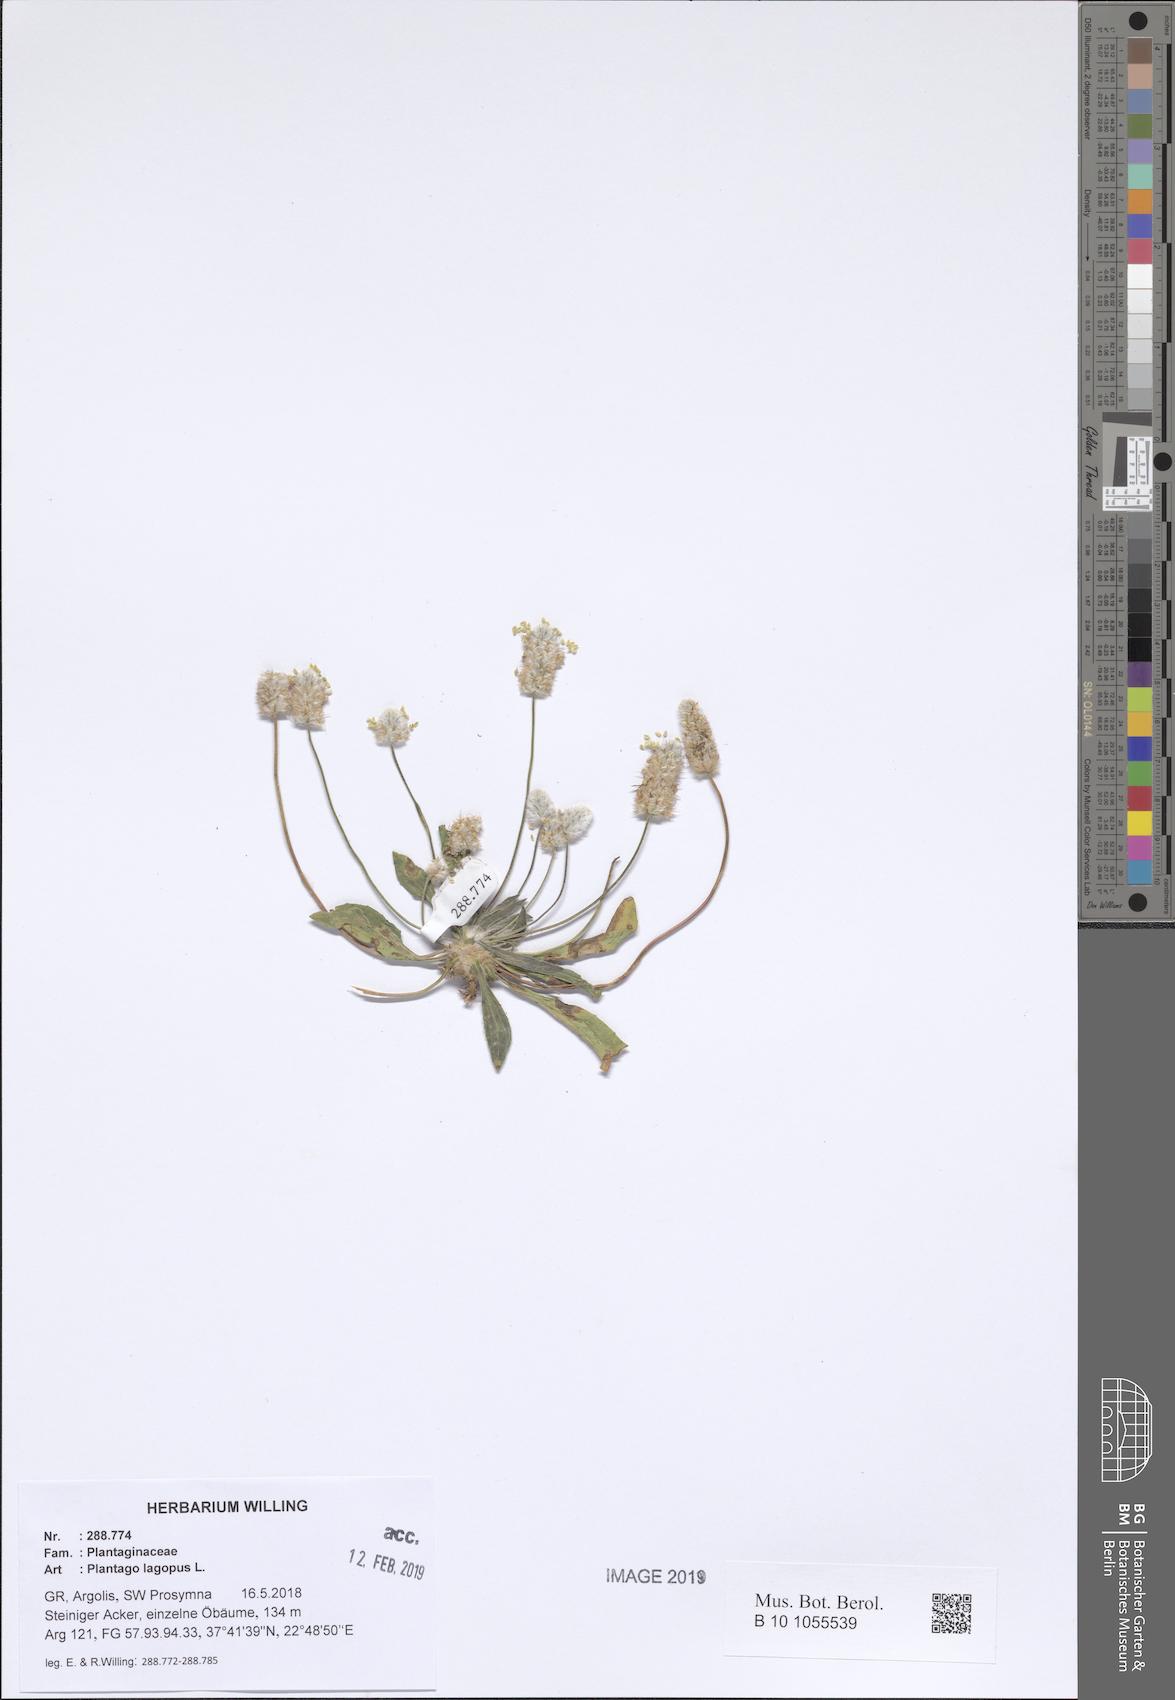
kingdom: Plantae
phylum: Tracheophyta
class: Magnoliopsida
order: Lamiales
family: Plantaginaceae
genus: Plantago
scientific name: Plantago lagopus
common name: Hare-foot plantain
